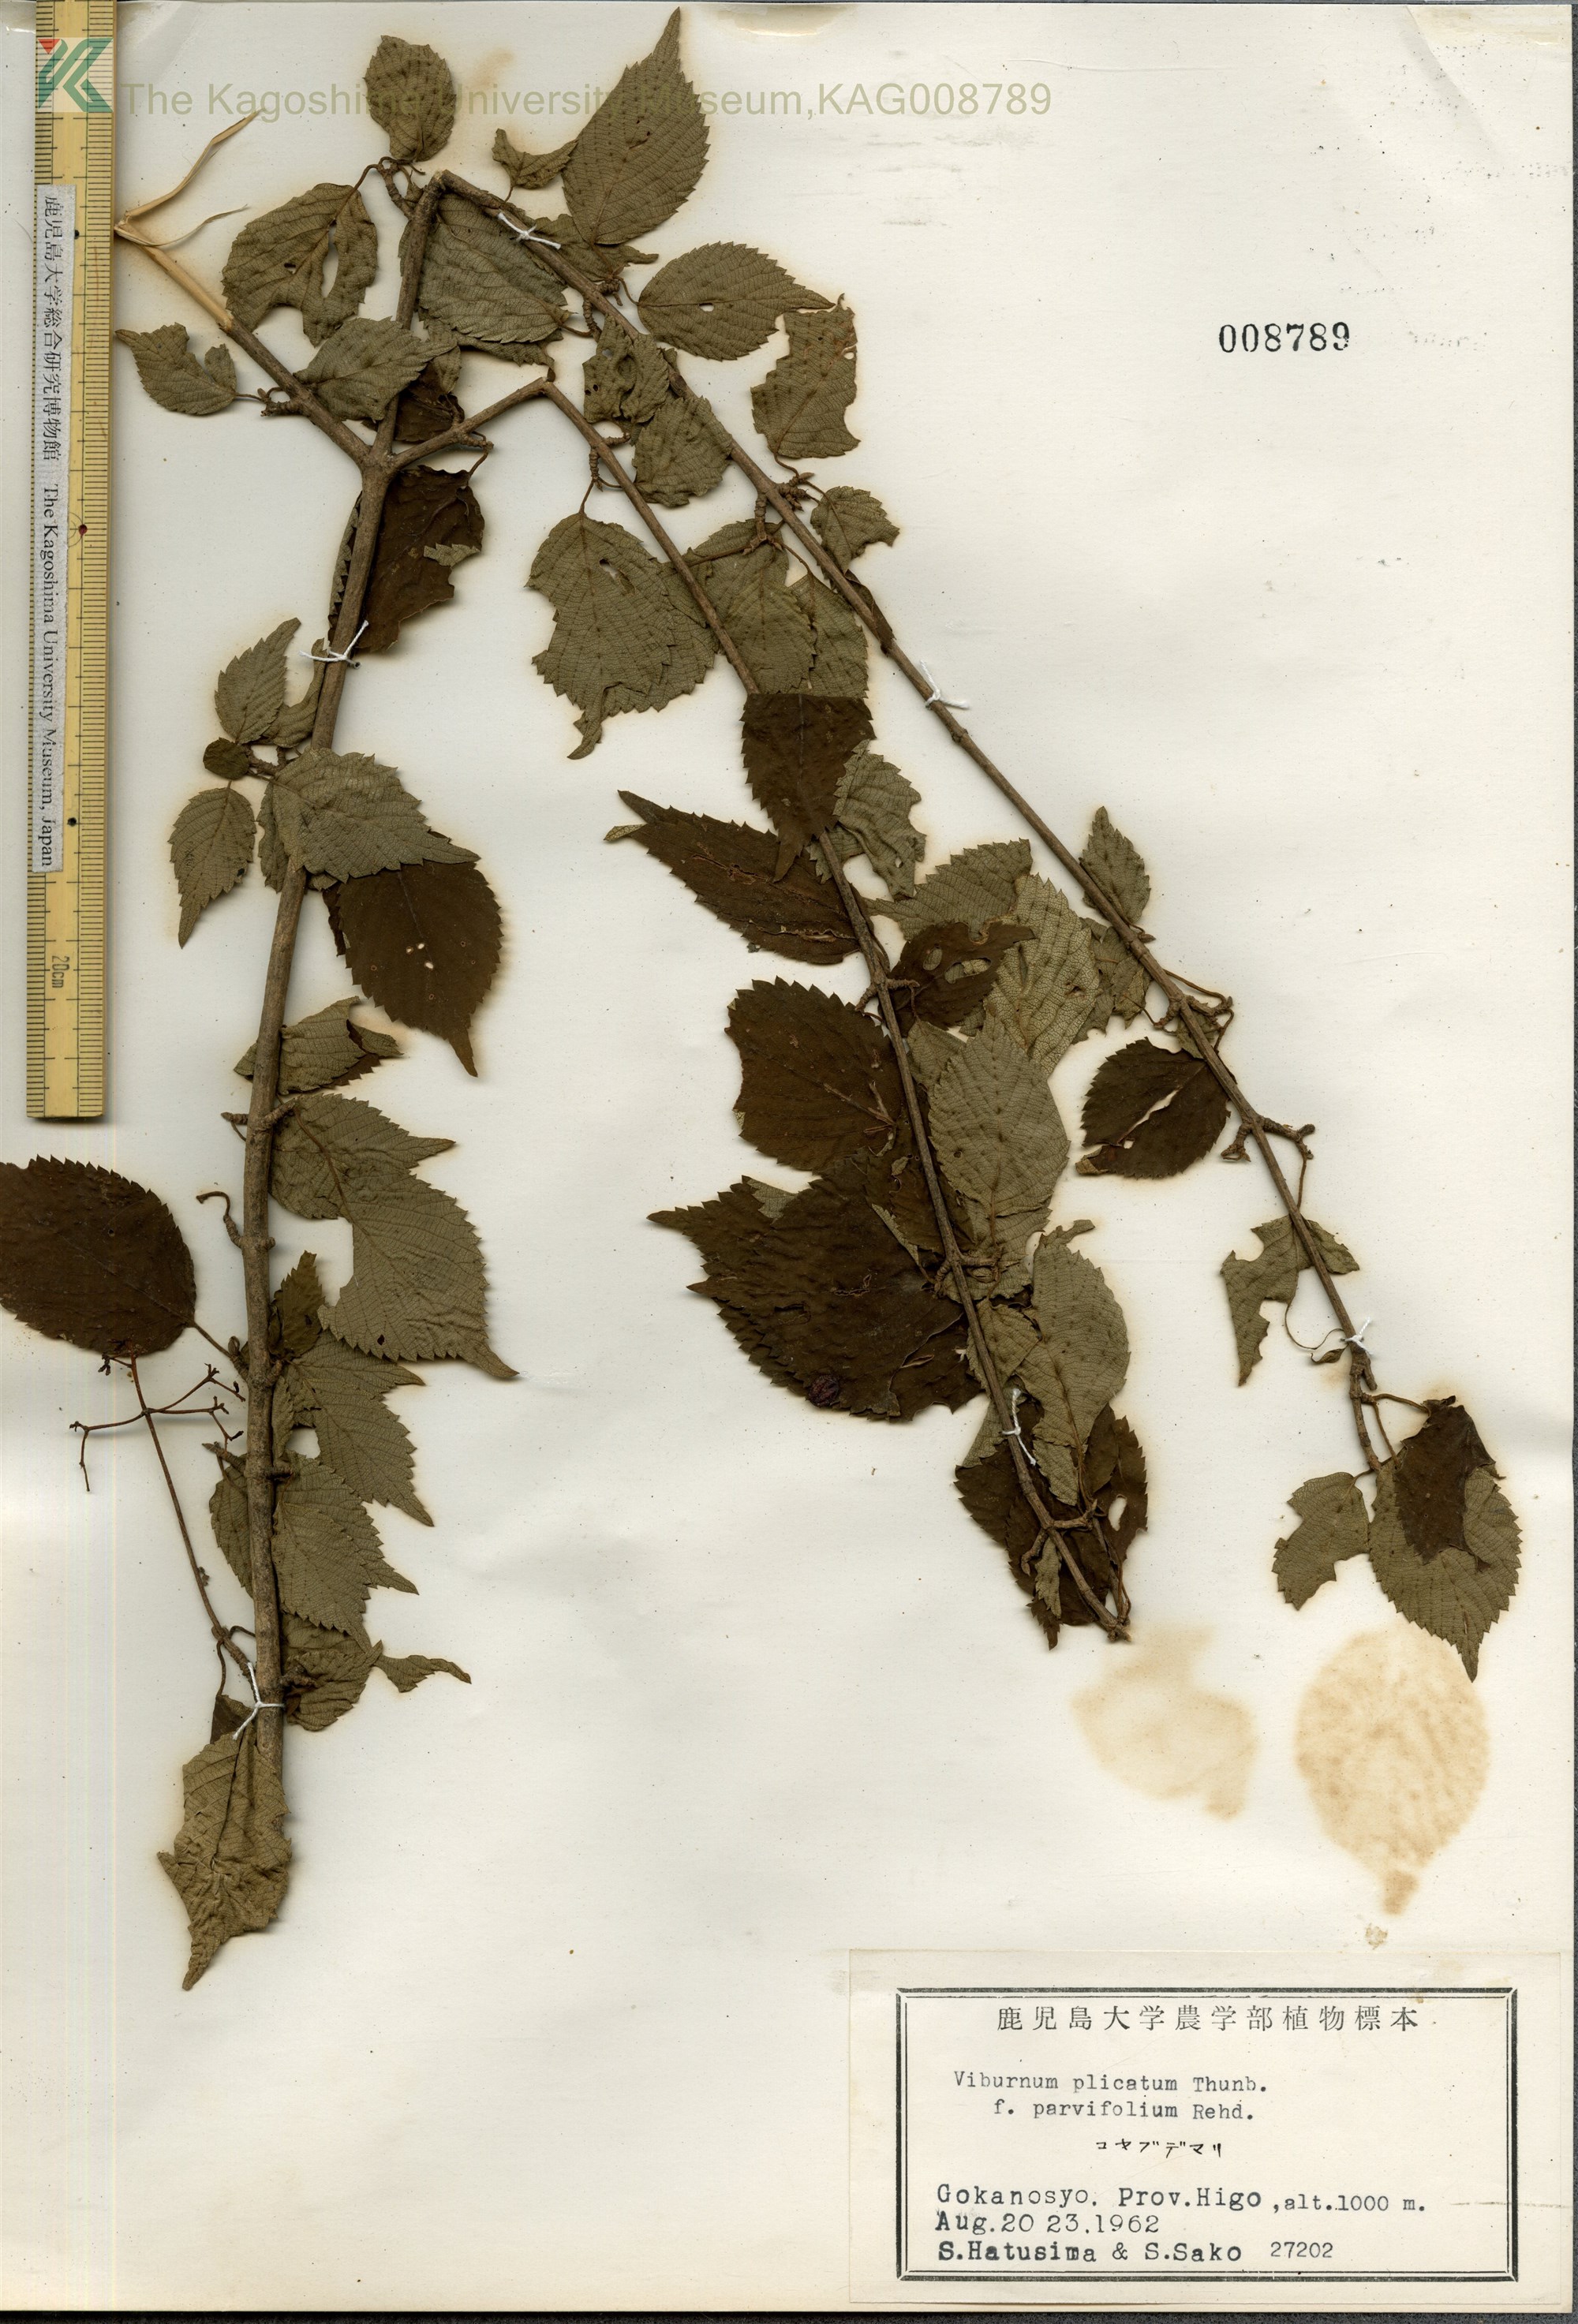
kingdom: Plantae
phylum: Tracheophyta
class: Magnoliopsida
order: Dipsacales
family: Viburnaceae
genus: Viburnum
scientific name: Viburnum plicatum
